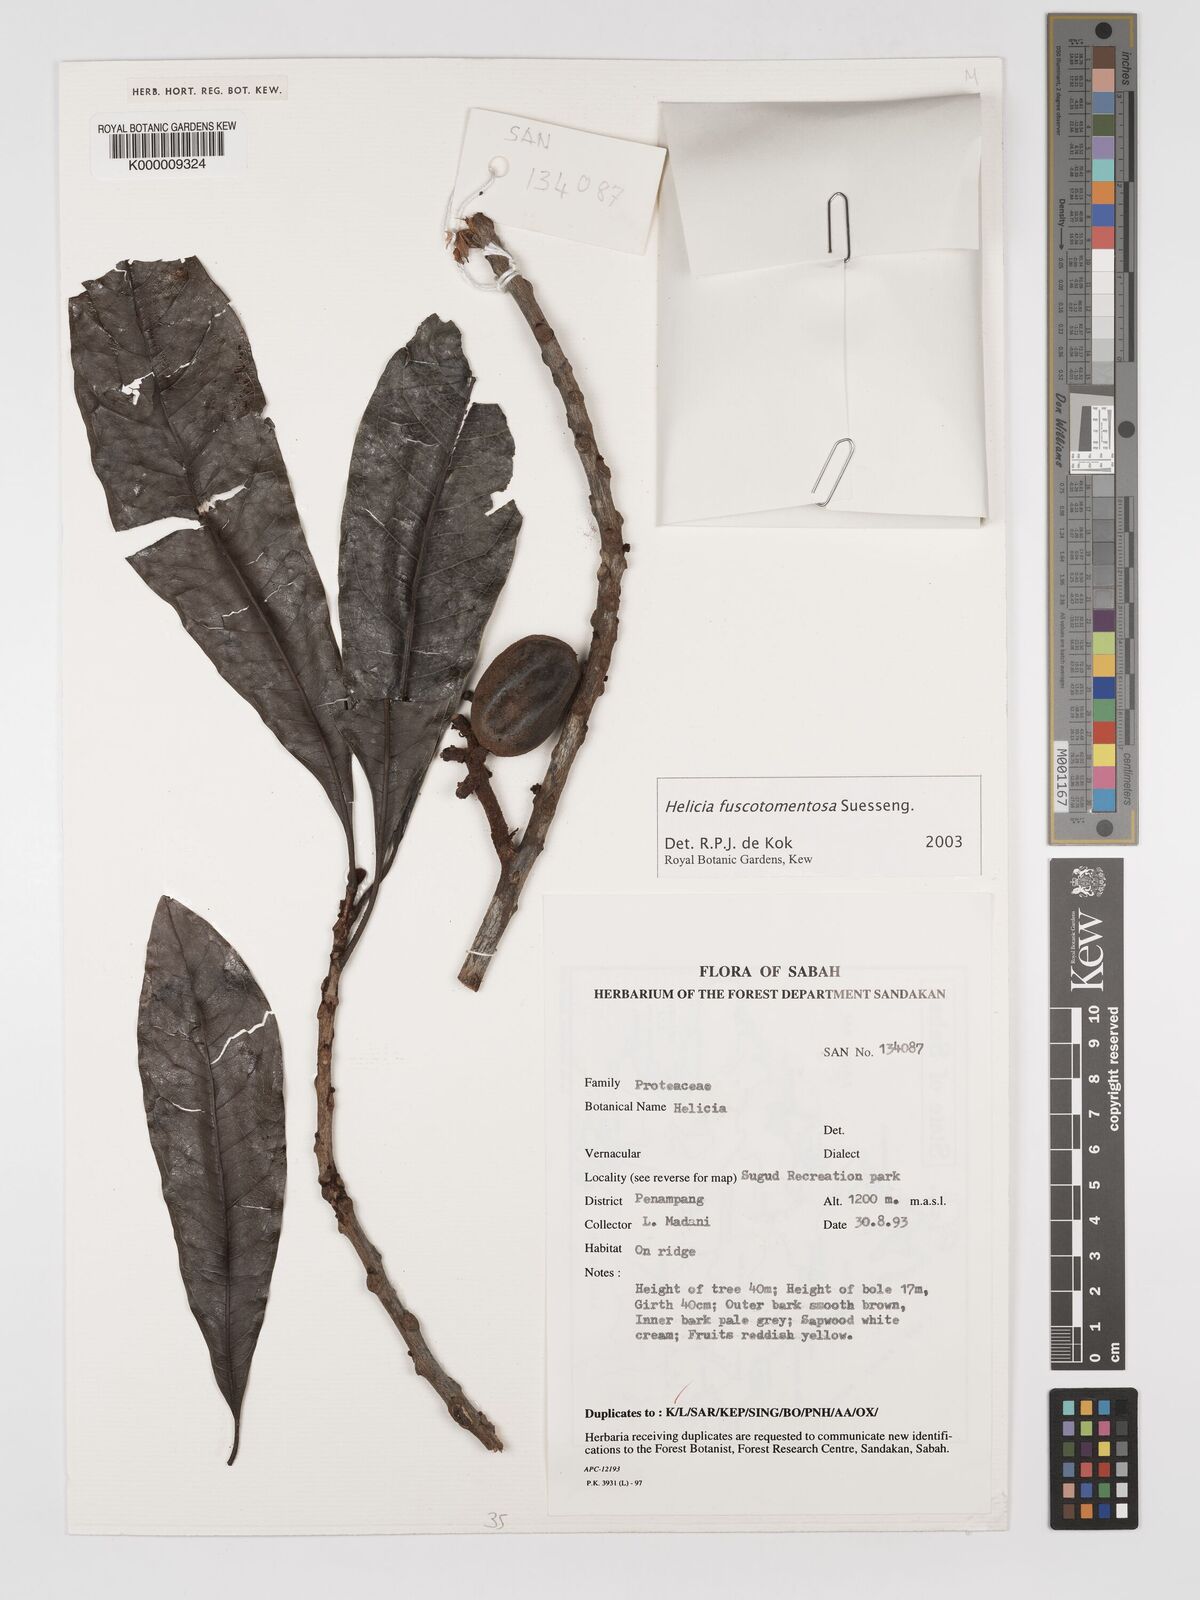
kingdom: Plantae
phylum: Tracheophyta
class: Magnoliopsida
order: Proteales
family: Proteaceae
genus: Helicia
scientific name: Helicia fuscotomentosa
